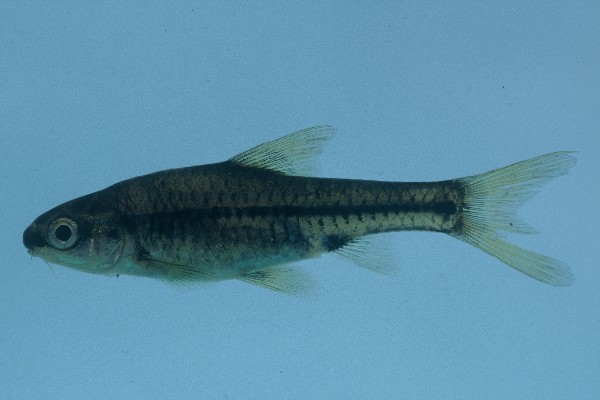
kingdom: Animalia
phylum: Chordata
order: Cypriniformes
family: Cyprinidae
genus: Barbus
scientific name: Barbus
